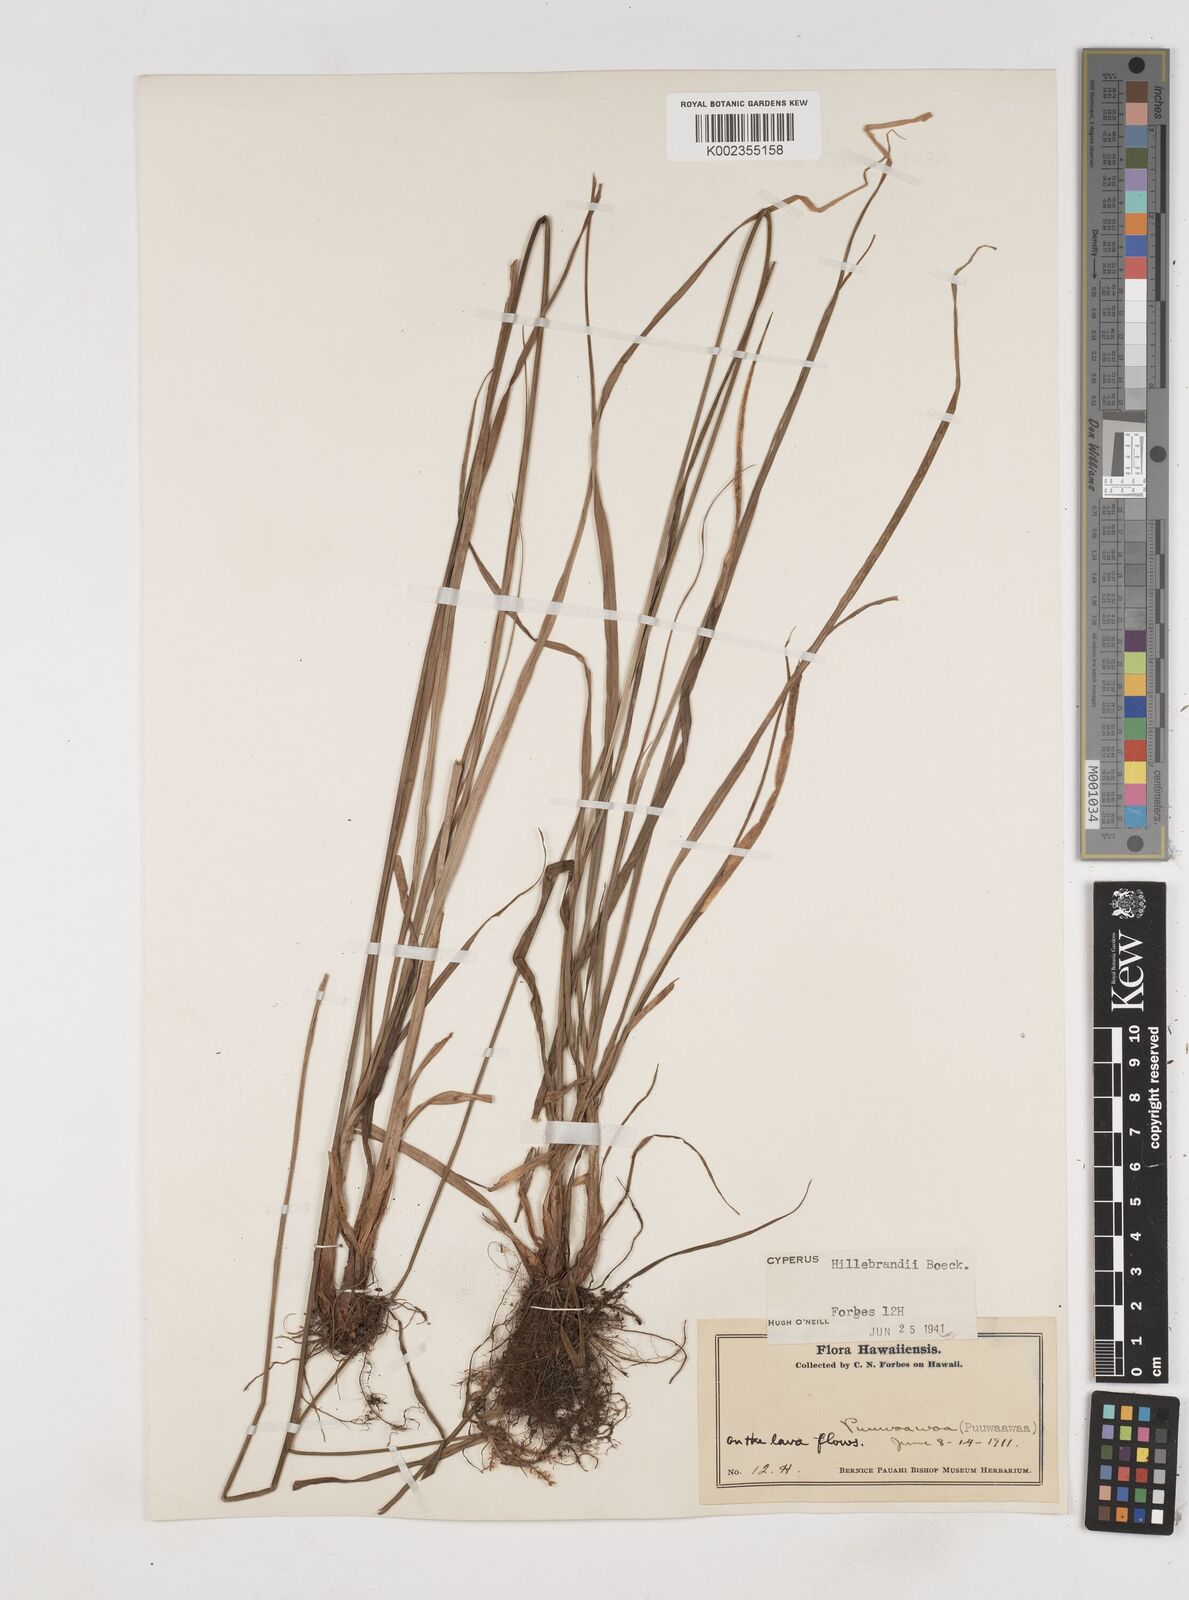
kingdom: Plantae
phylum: Tracheophyta
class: Liliopsida
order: Poales
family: Cyperaceae
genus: Cyperus
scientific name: Cyperus hillebrandii
